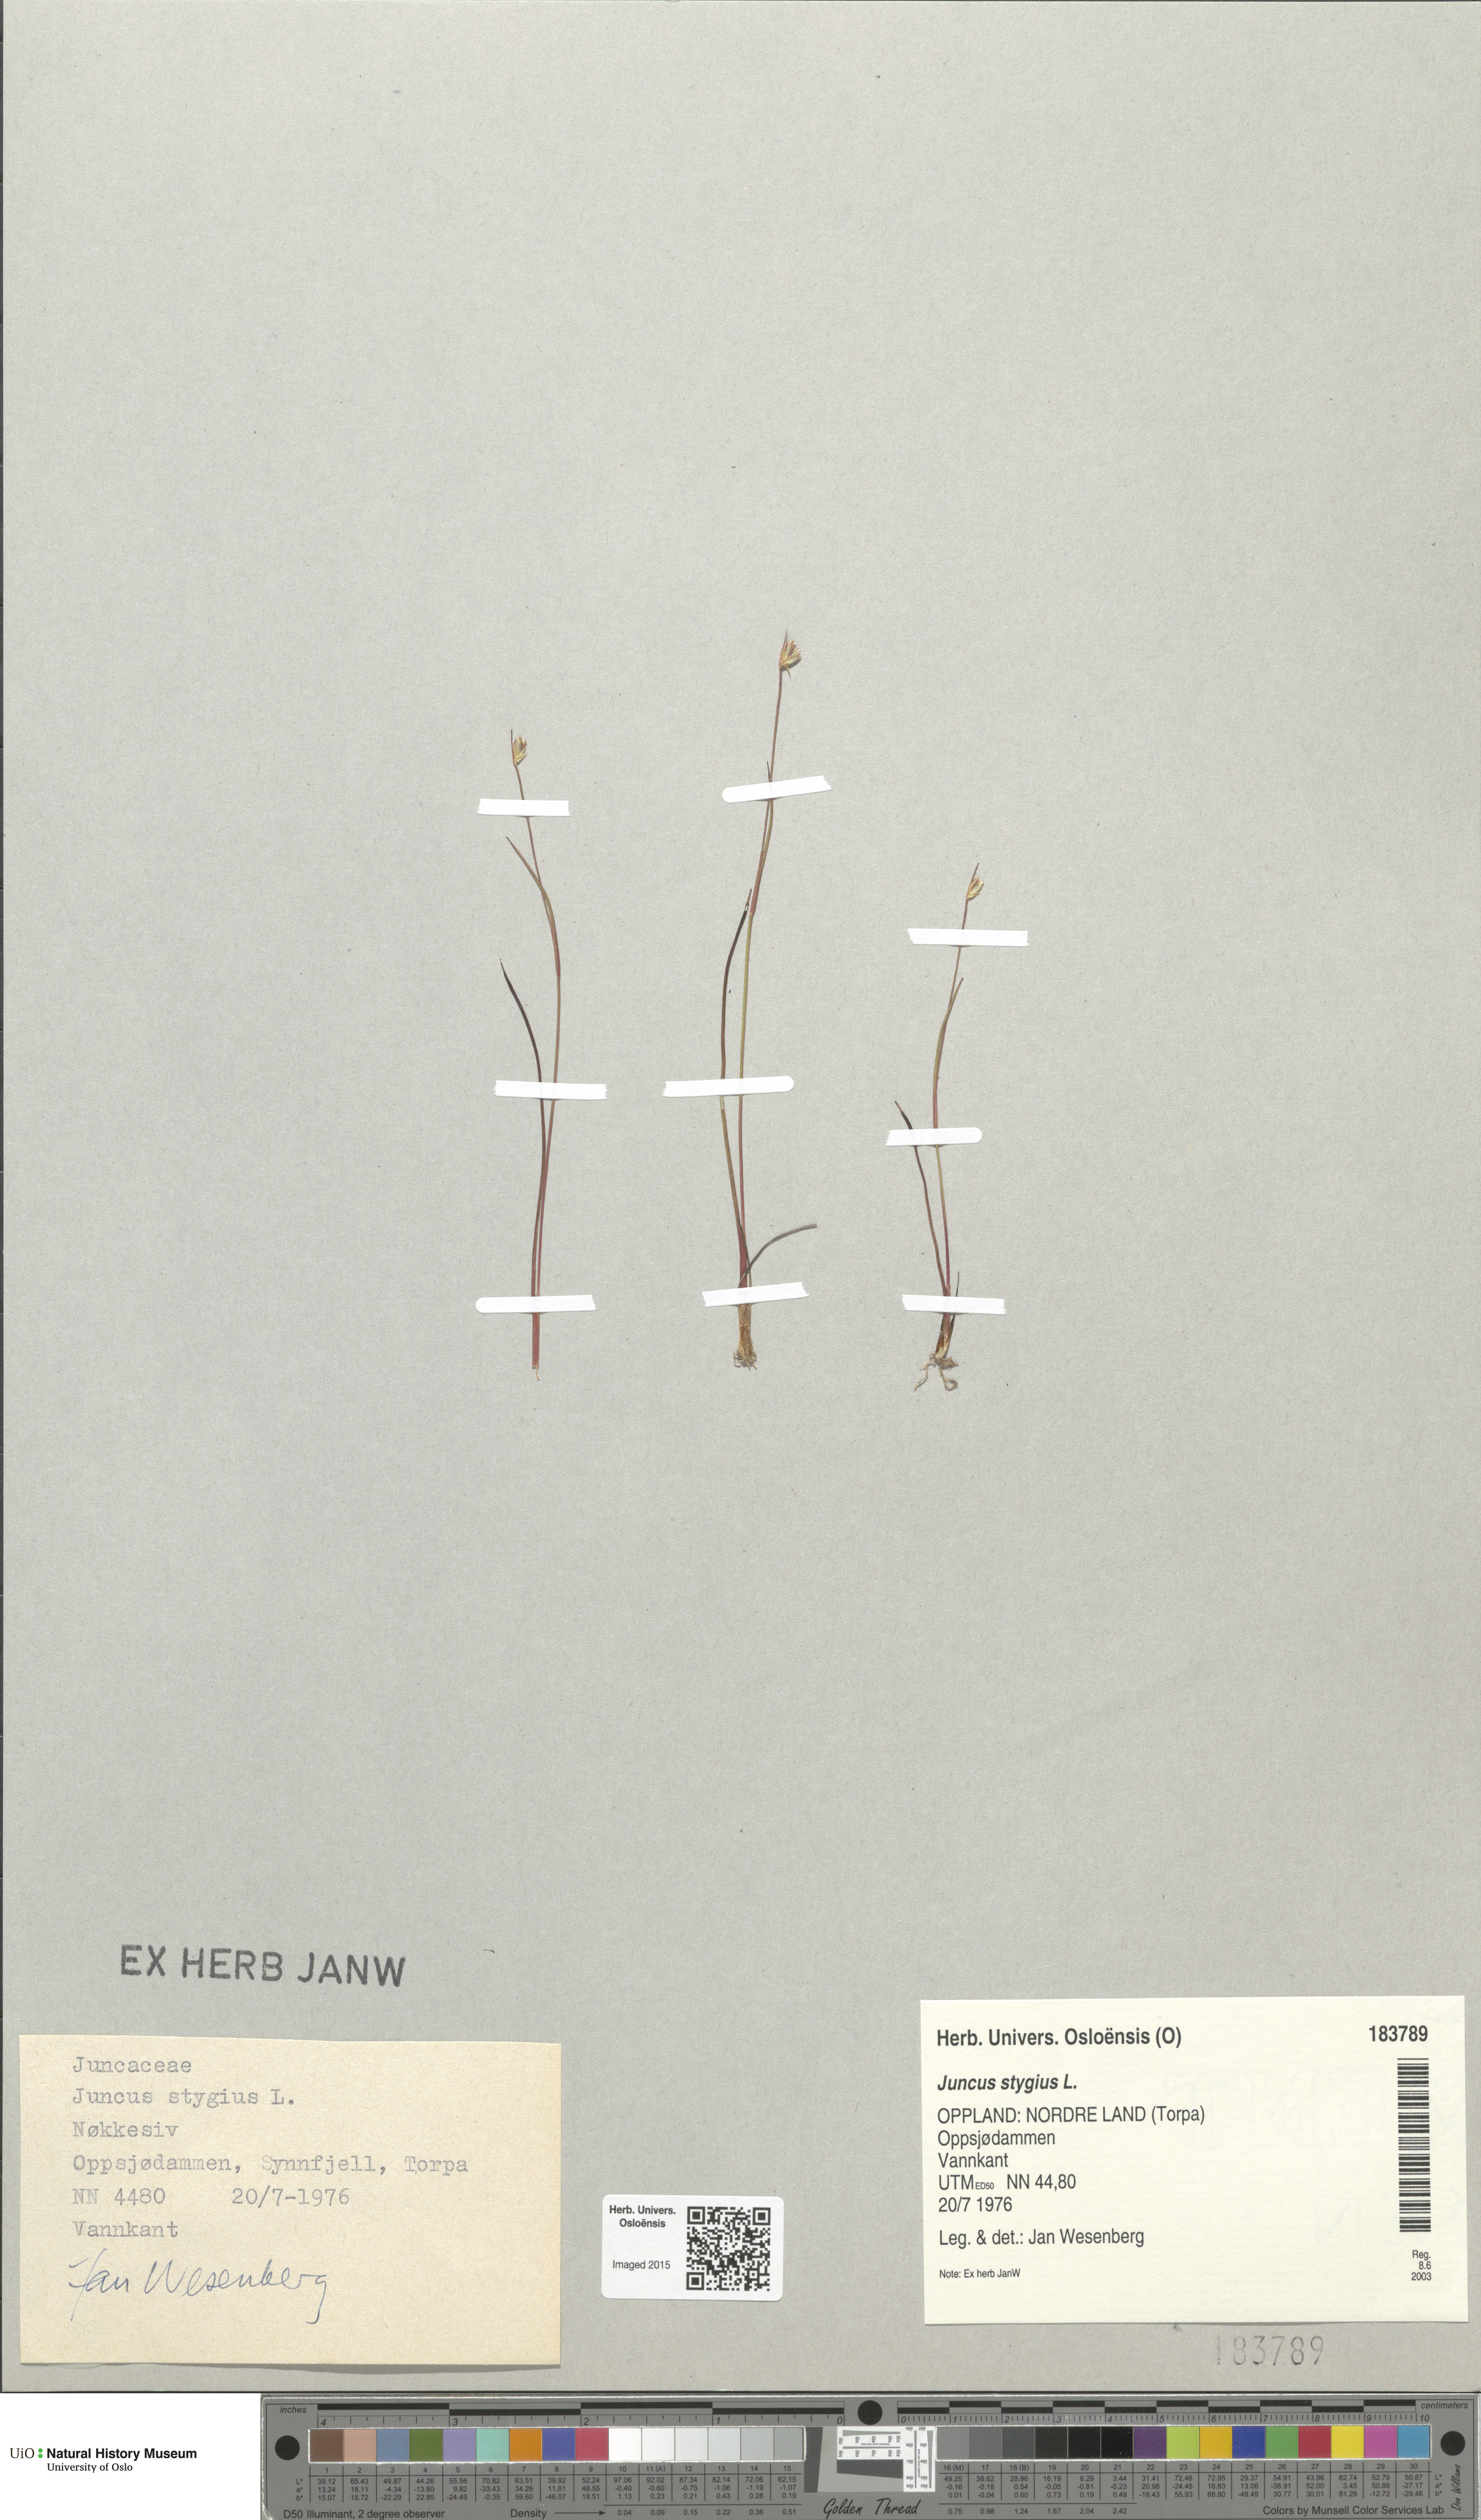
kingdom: Plantae
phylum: Tracheophyta
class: Liliopsida
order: Poales
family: Juncaceae
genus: Juncus
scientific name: Juncus stygius
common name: Bog rush
